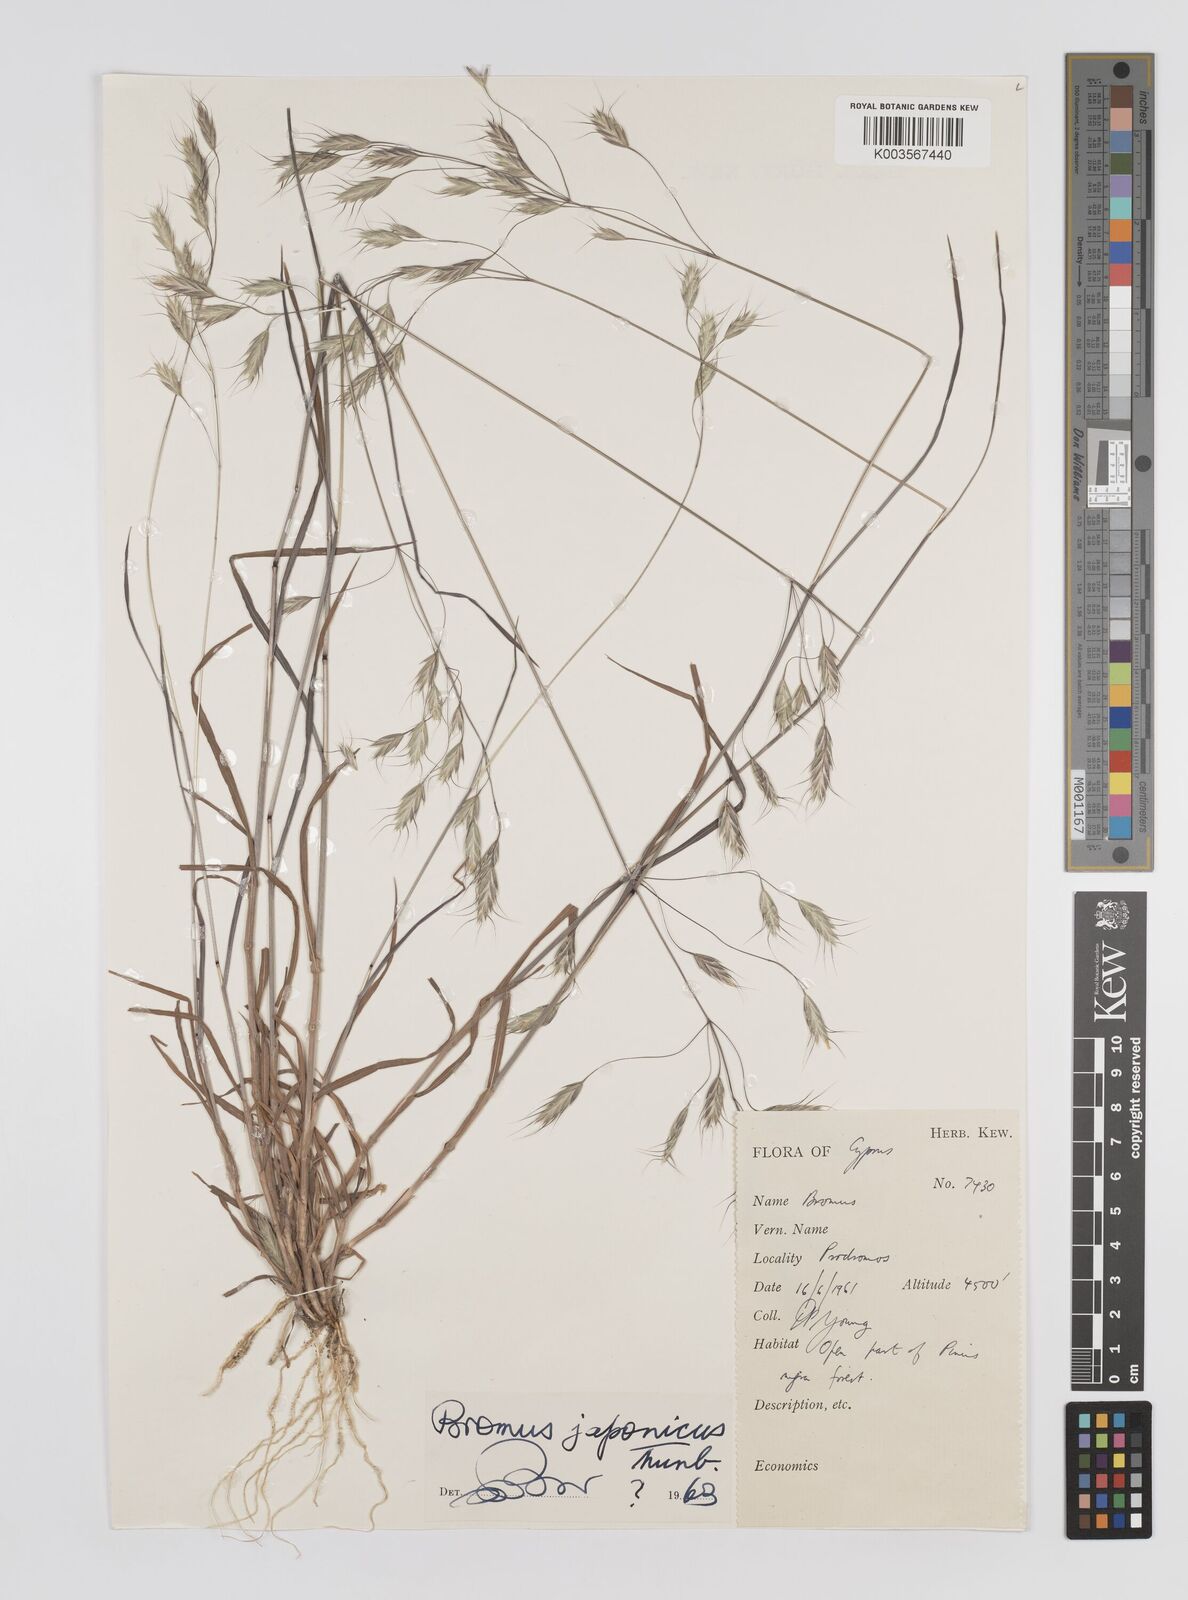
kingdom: Plantae
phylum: Tracheophyta
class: Liliopsida
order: Poales
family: Poaceae
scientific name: Poaceae
